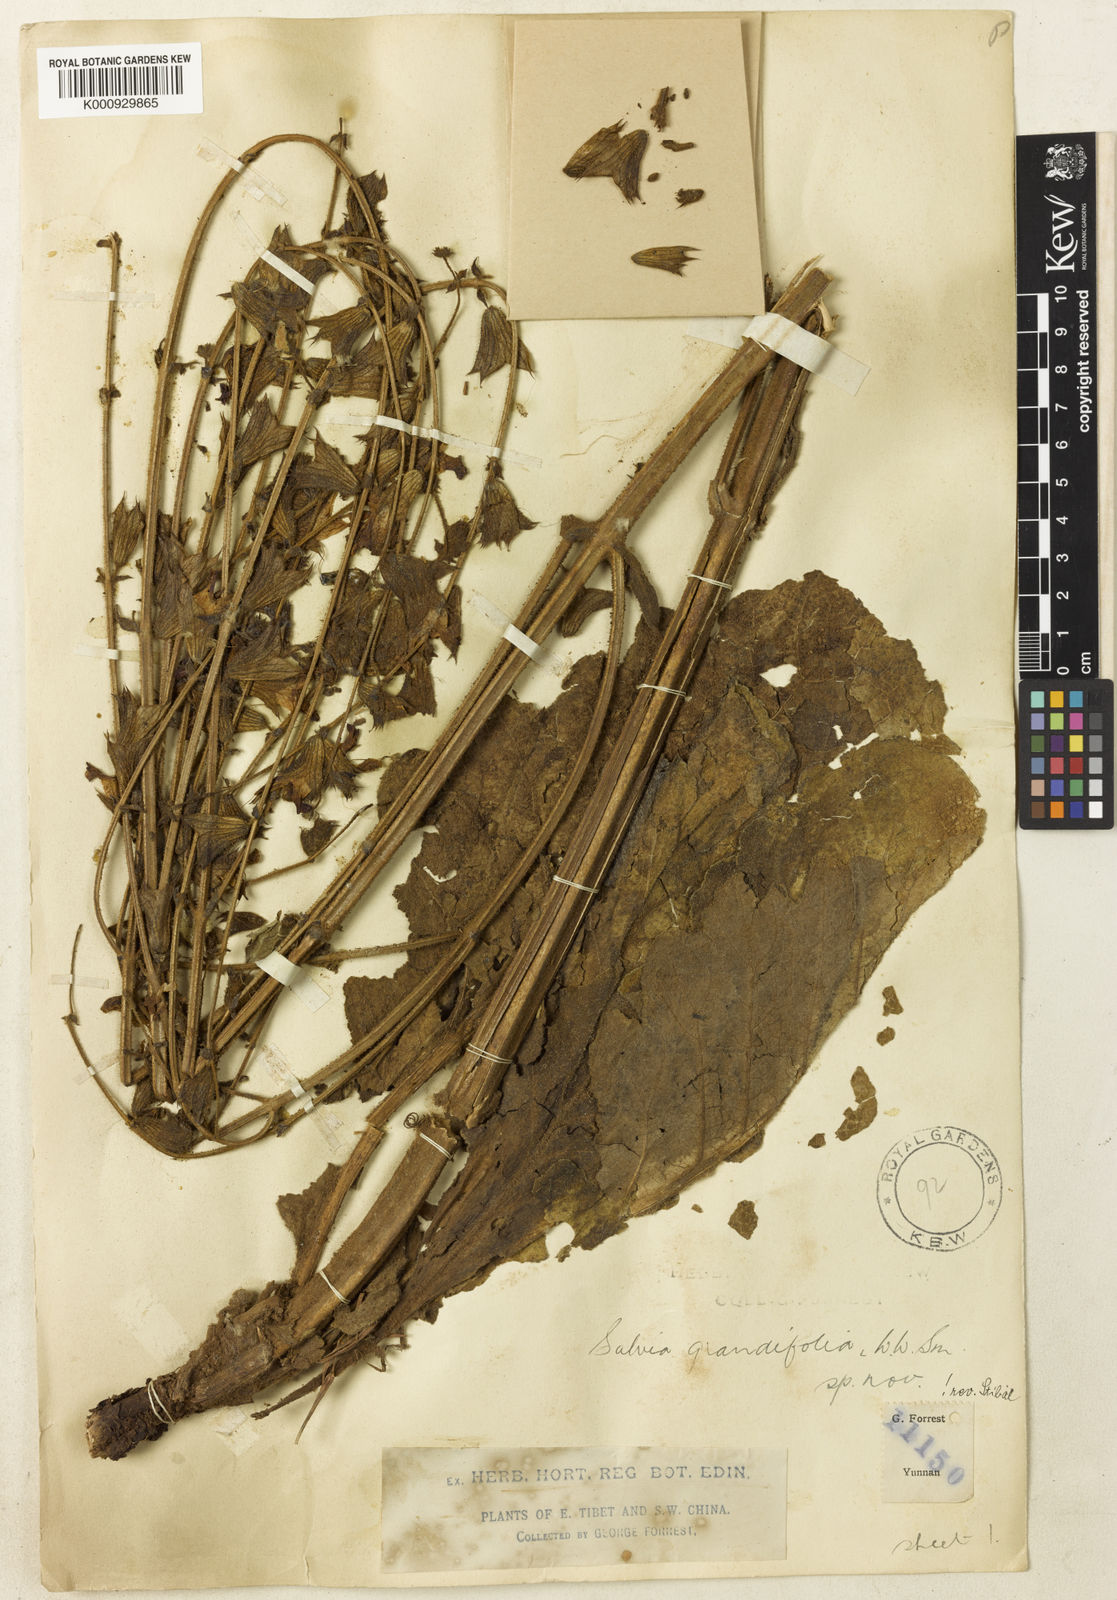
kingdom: Plantae
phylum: Tracheophyta
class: Magnoliopsida
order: Lamiales
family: Lamiaceae
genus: Salvia
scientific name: Salvia grandifolia
